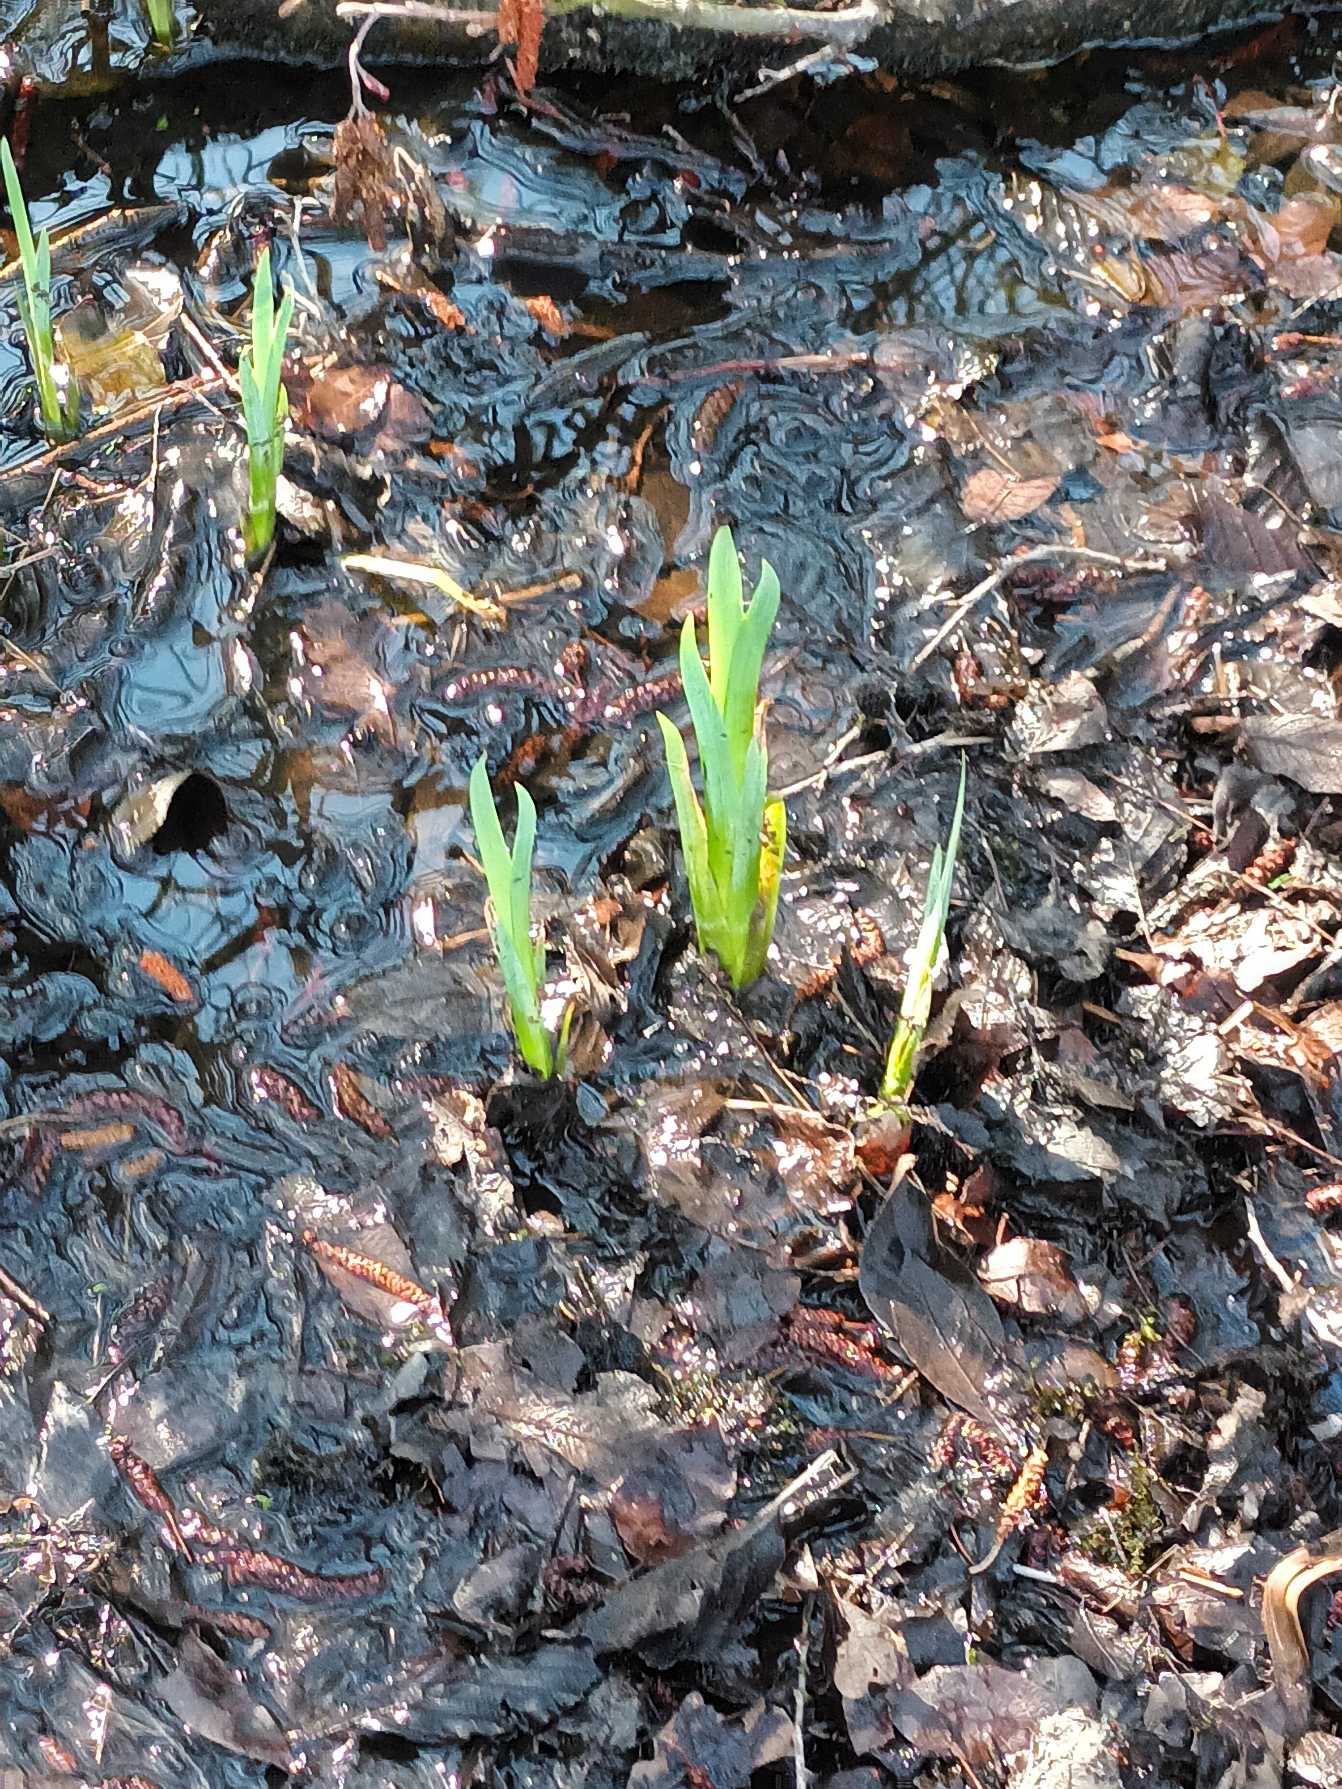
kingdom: Plantae
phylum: Tracheophyta
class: Liliopsida
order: Asparagales
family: Iridaceae
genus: Iris
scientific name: Iris pseudacorus
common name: Gul iris
